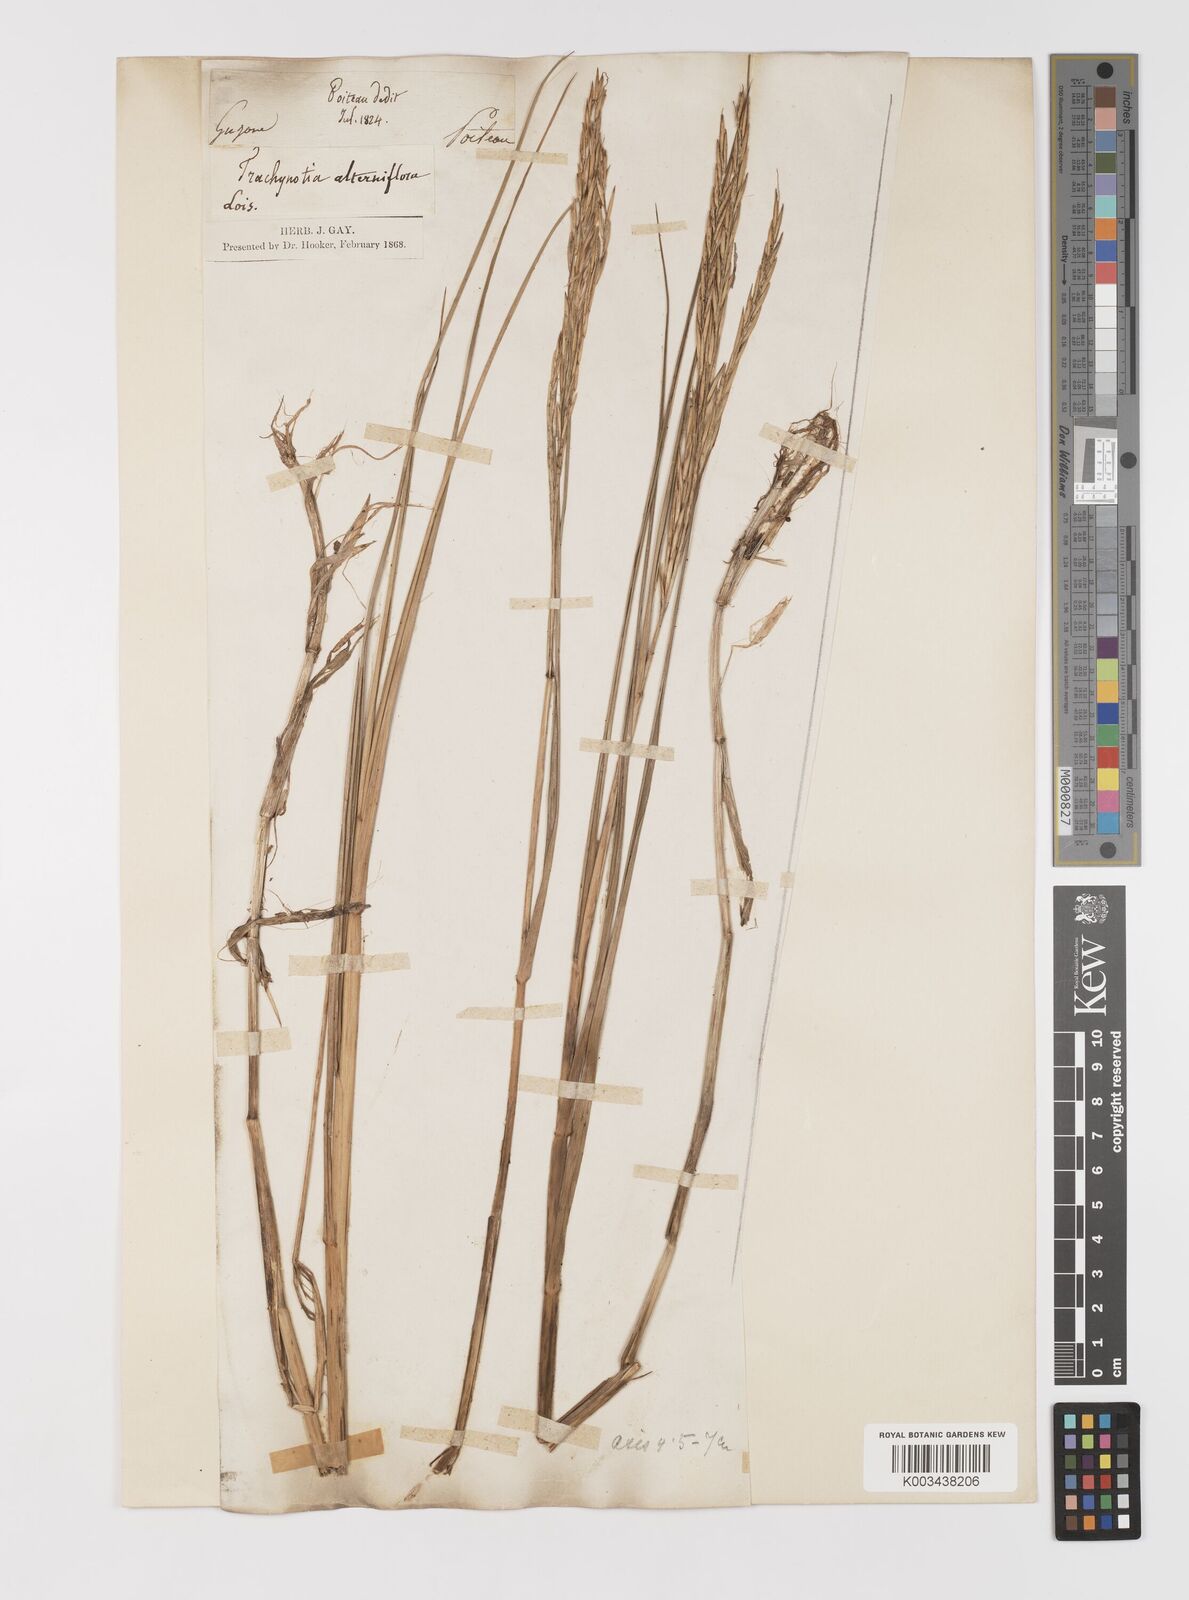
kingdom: Plantae
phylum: Tracheophyta
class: Liliopsida
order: Poales
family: Poaceae
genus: Sporobolus
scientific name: Sporobolus alterniflorus
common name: Atlantic cordgrass
